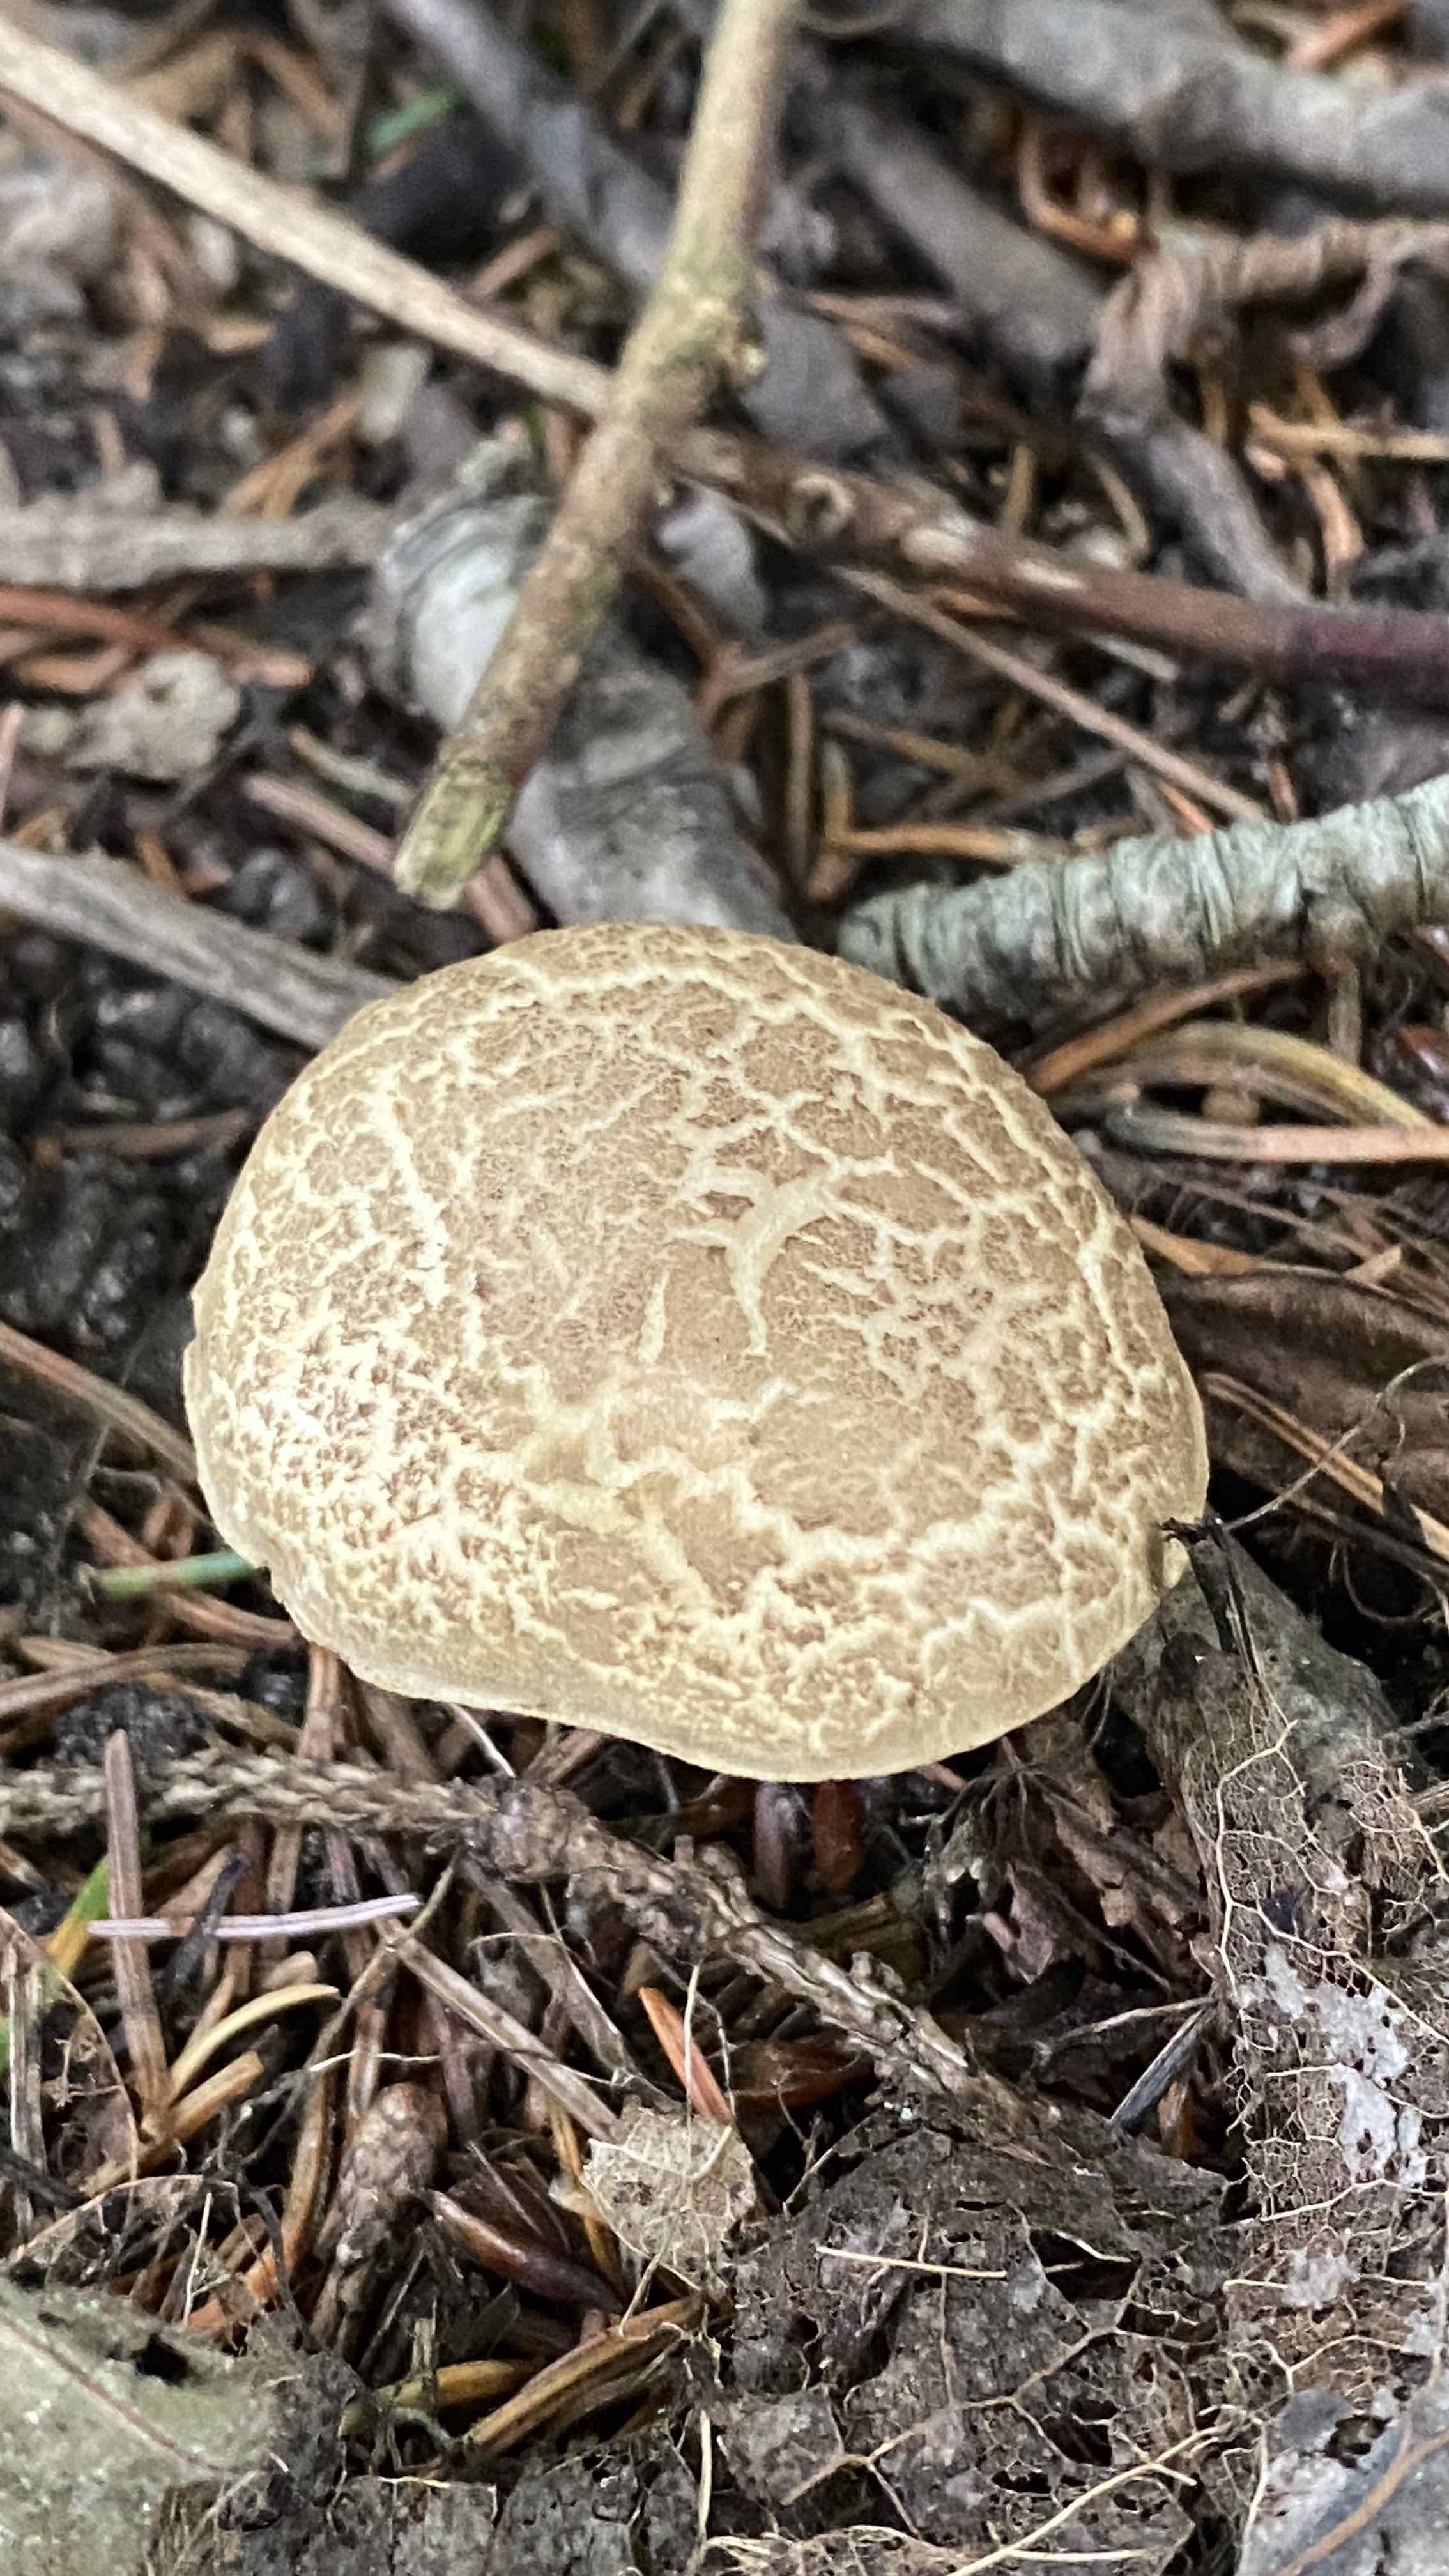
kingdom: Fungi
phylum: Basidiomycota
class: Agaricomycetes
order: Boletales
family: Boletaceae
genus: Xerocomellus
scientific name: Xerocomellus porosporus
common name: hvidsprukken rørhat
